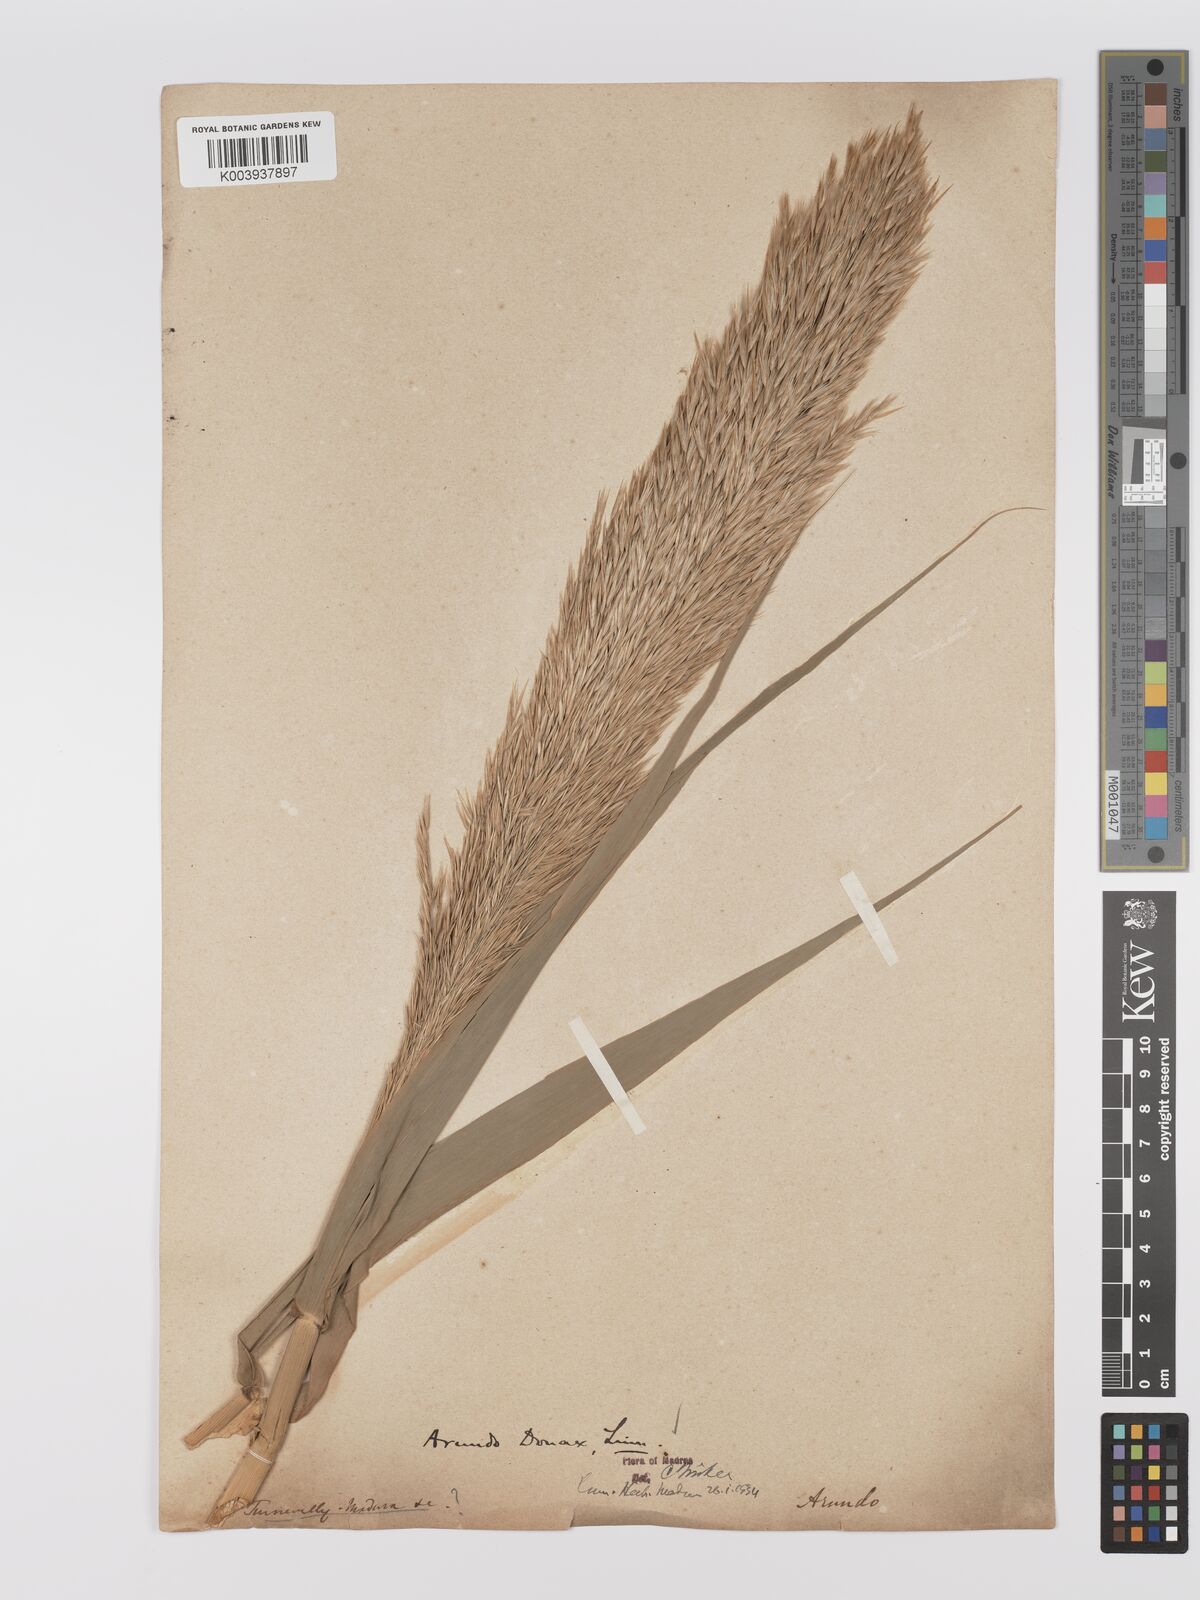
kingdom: Plantae
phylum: Tracheophyta
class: Liliopsida
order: Poales
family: Poaceae
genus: Arundo
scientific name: Arundo
